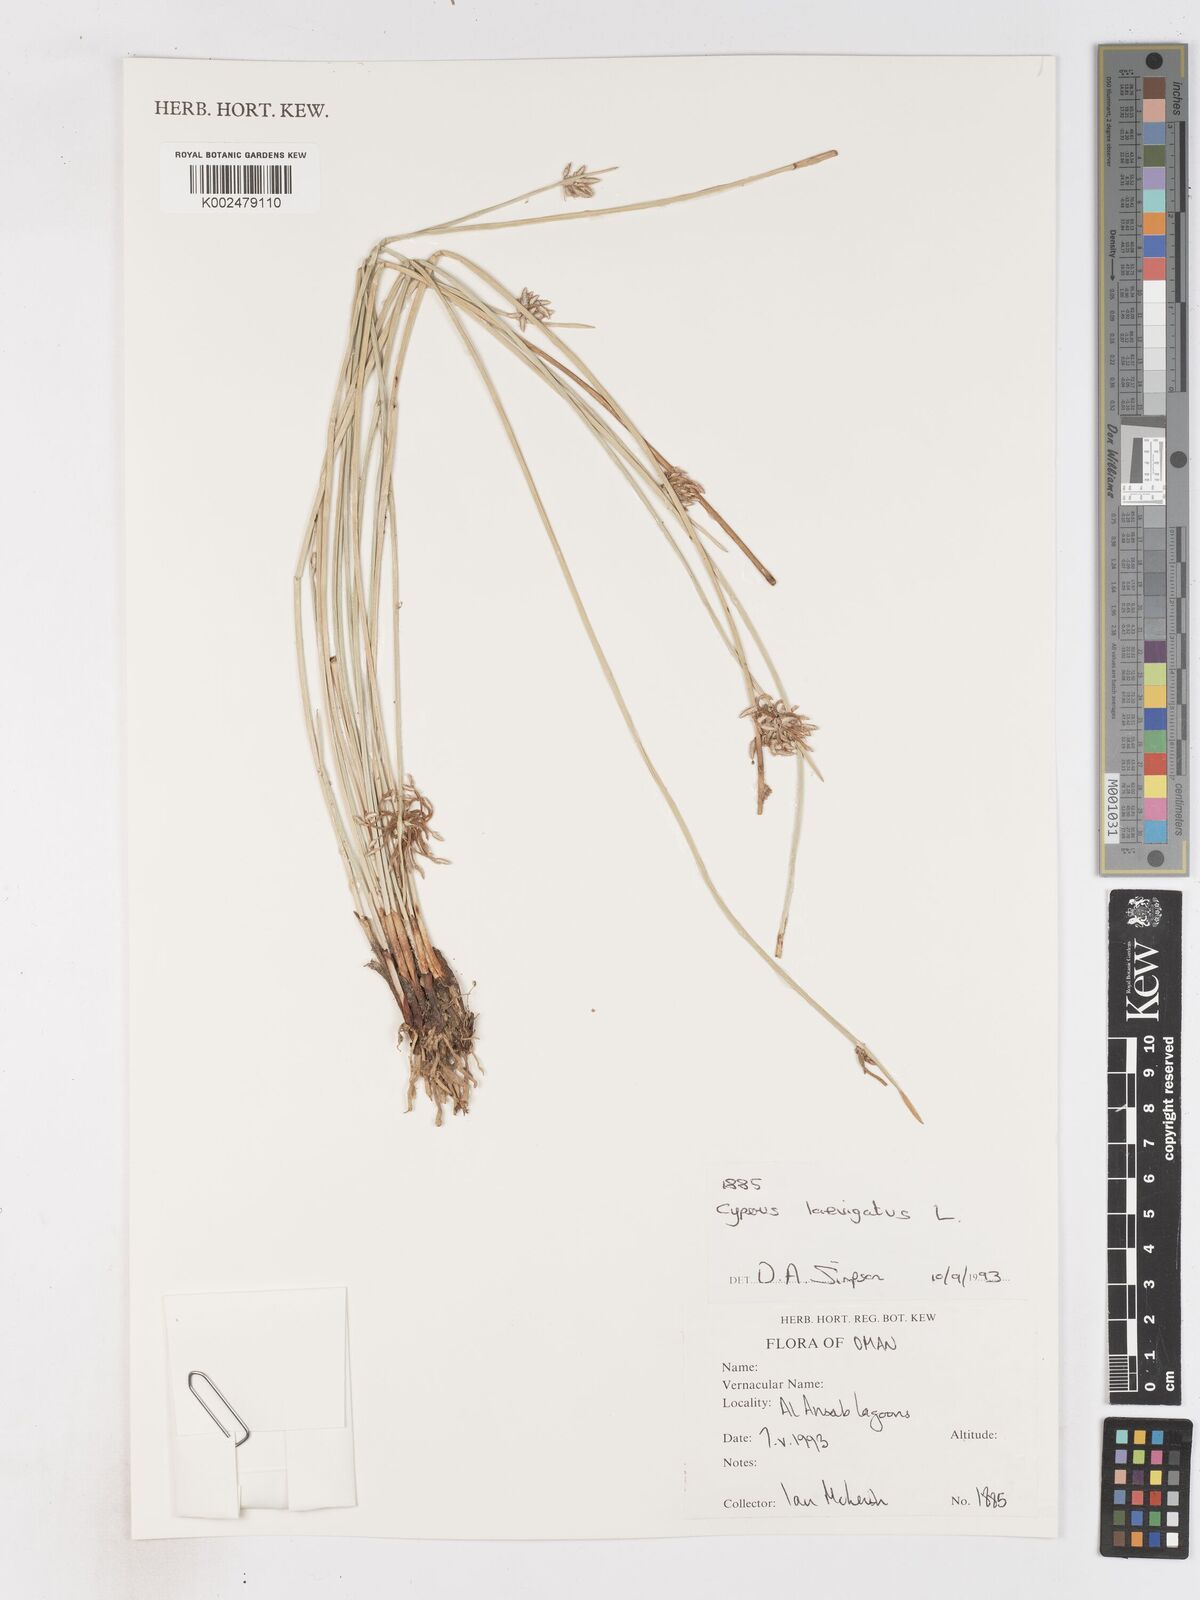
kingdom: Plantae
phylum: Tracheophyta
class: Liliopsida
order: Poales
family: Cyperaceae
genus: Cyperus
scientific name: Cyperus laevigatus
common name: Smooth flat sedge
